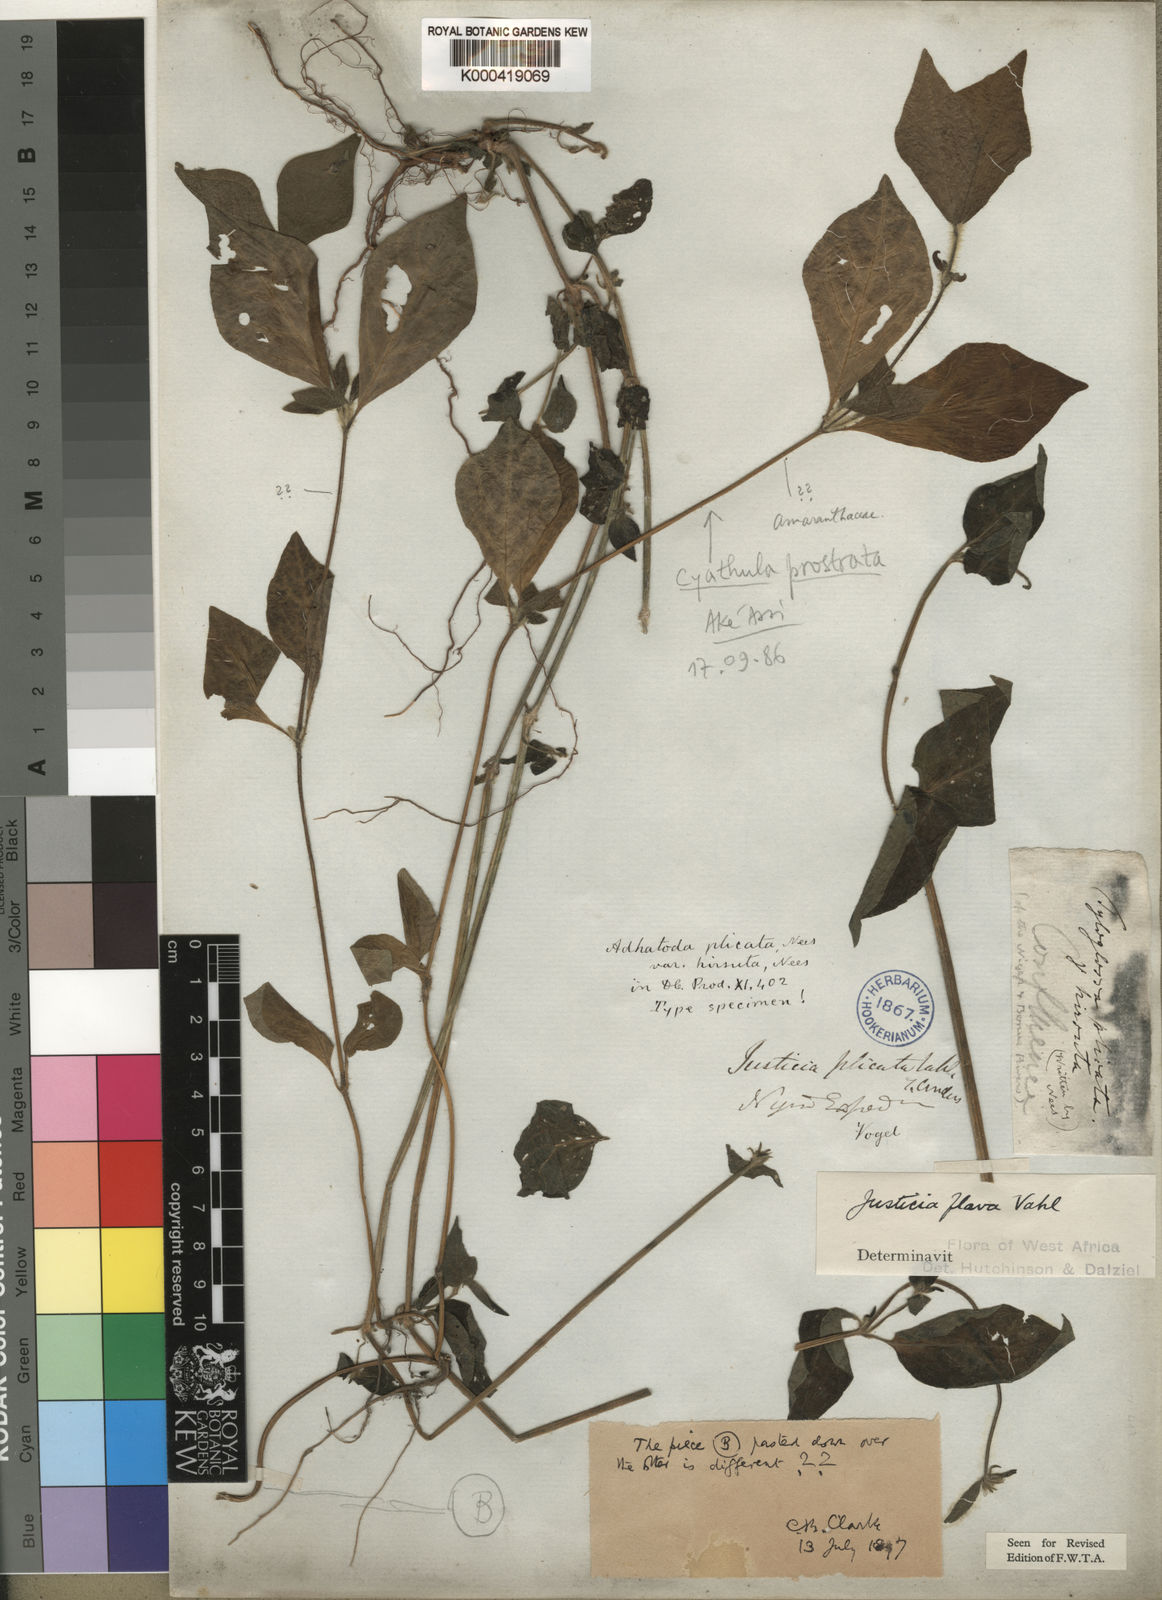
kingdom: Plantae
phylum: Tracheophyta
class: Magnoliopsida
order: Lamiales
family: Acanthaceae
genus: Justicia
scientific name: Justicia flava
